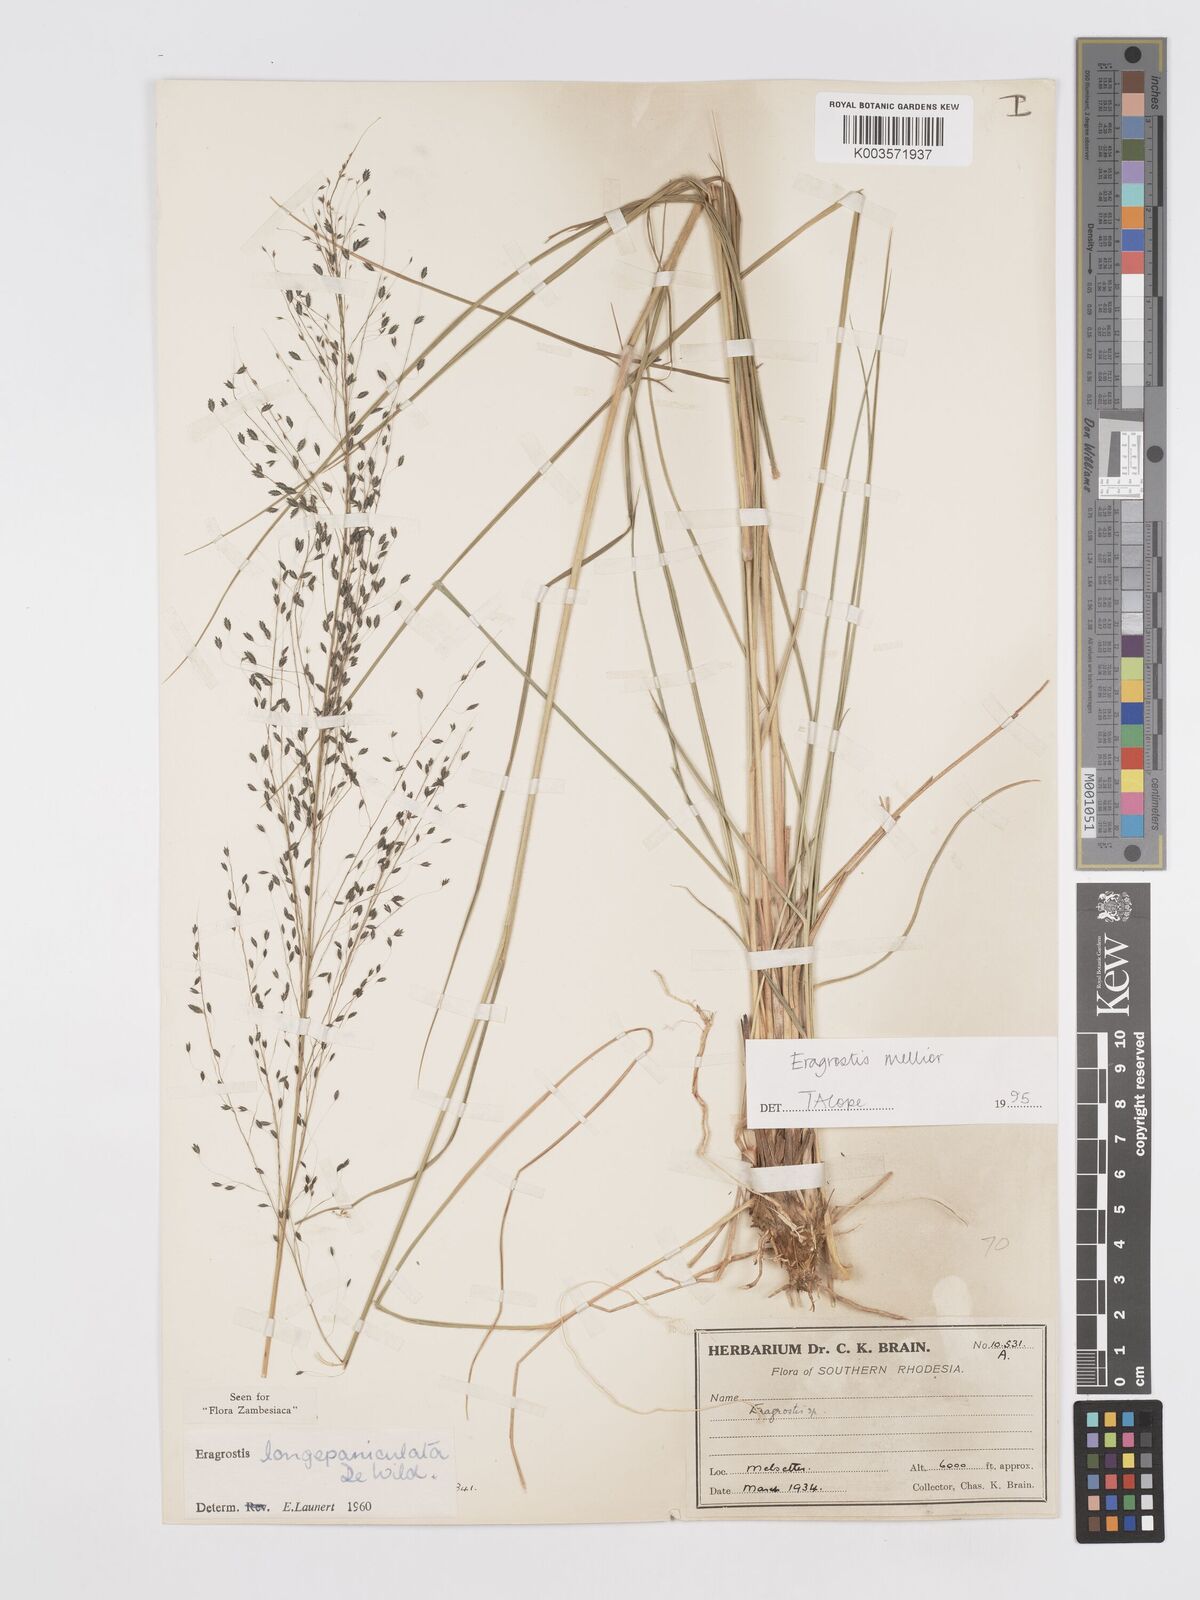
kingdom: Plantae
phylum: Tracheophyta
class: Liliopsida
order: Poales
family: Poaceae
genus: Eragrostis
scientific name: Eragrostis mollior
